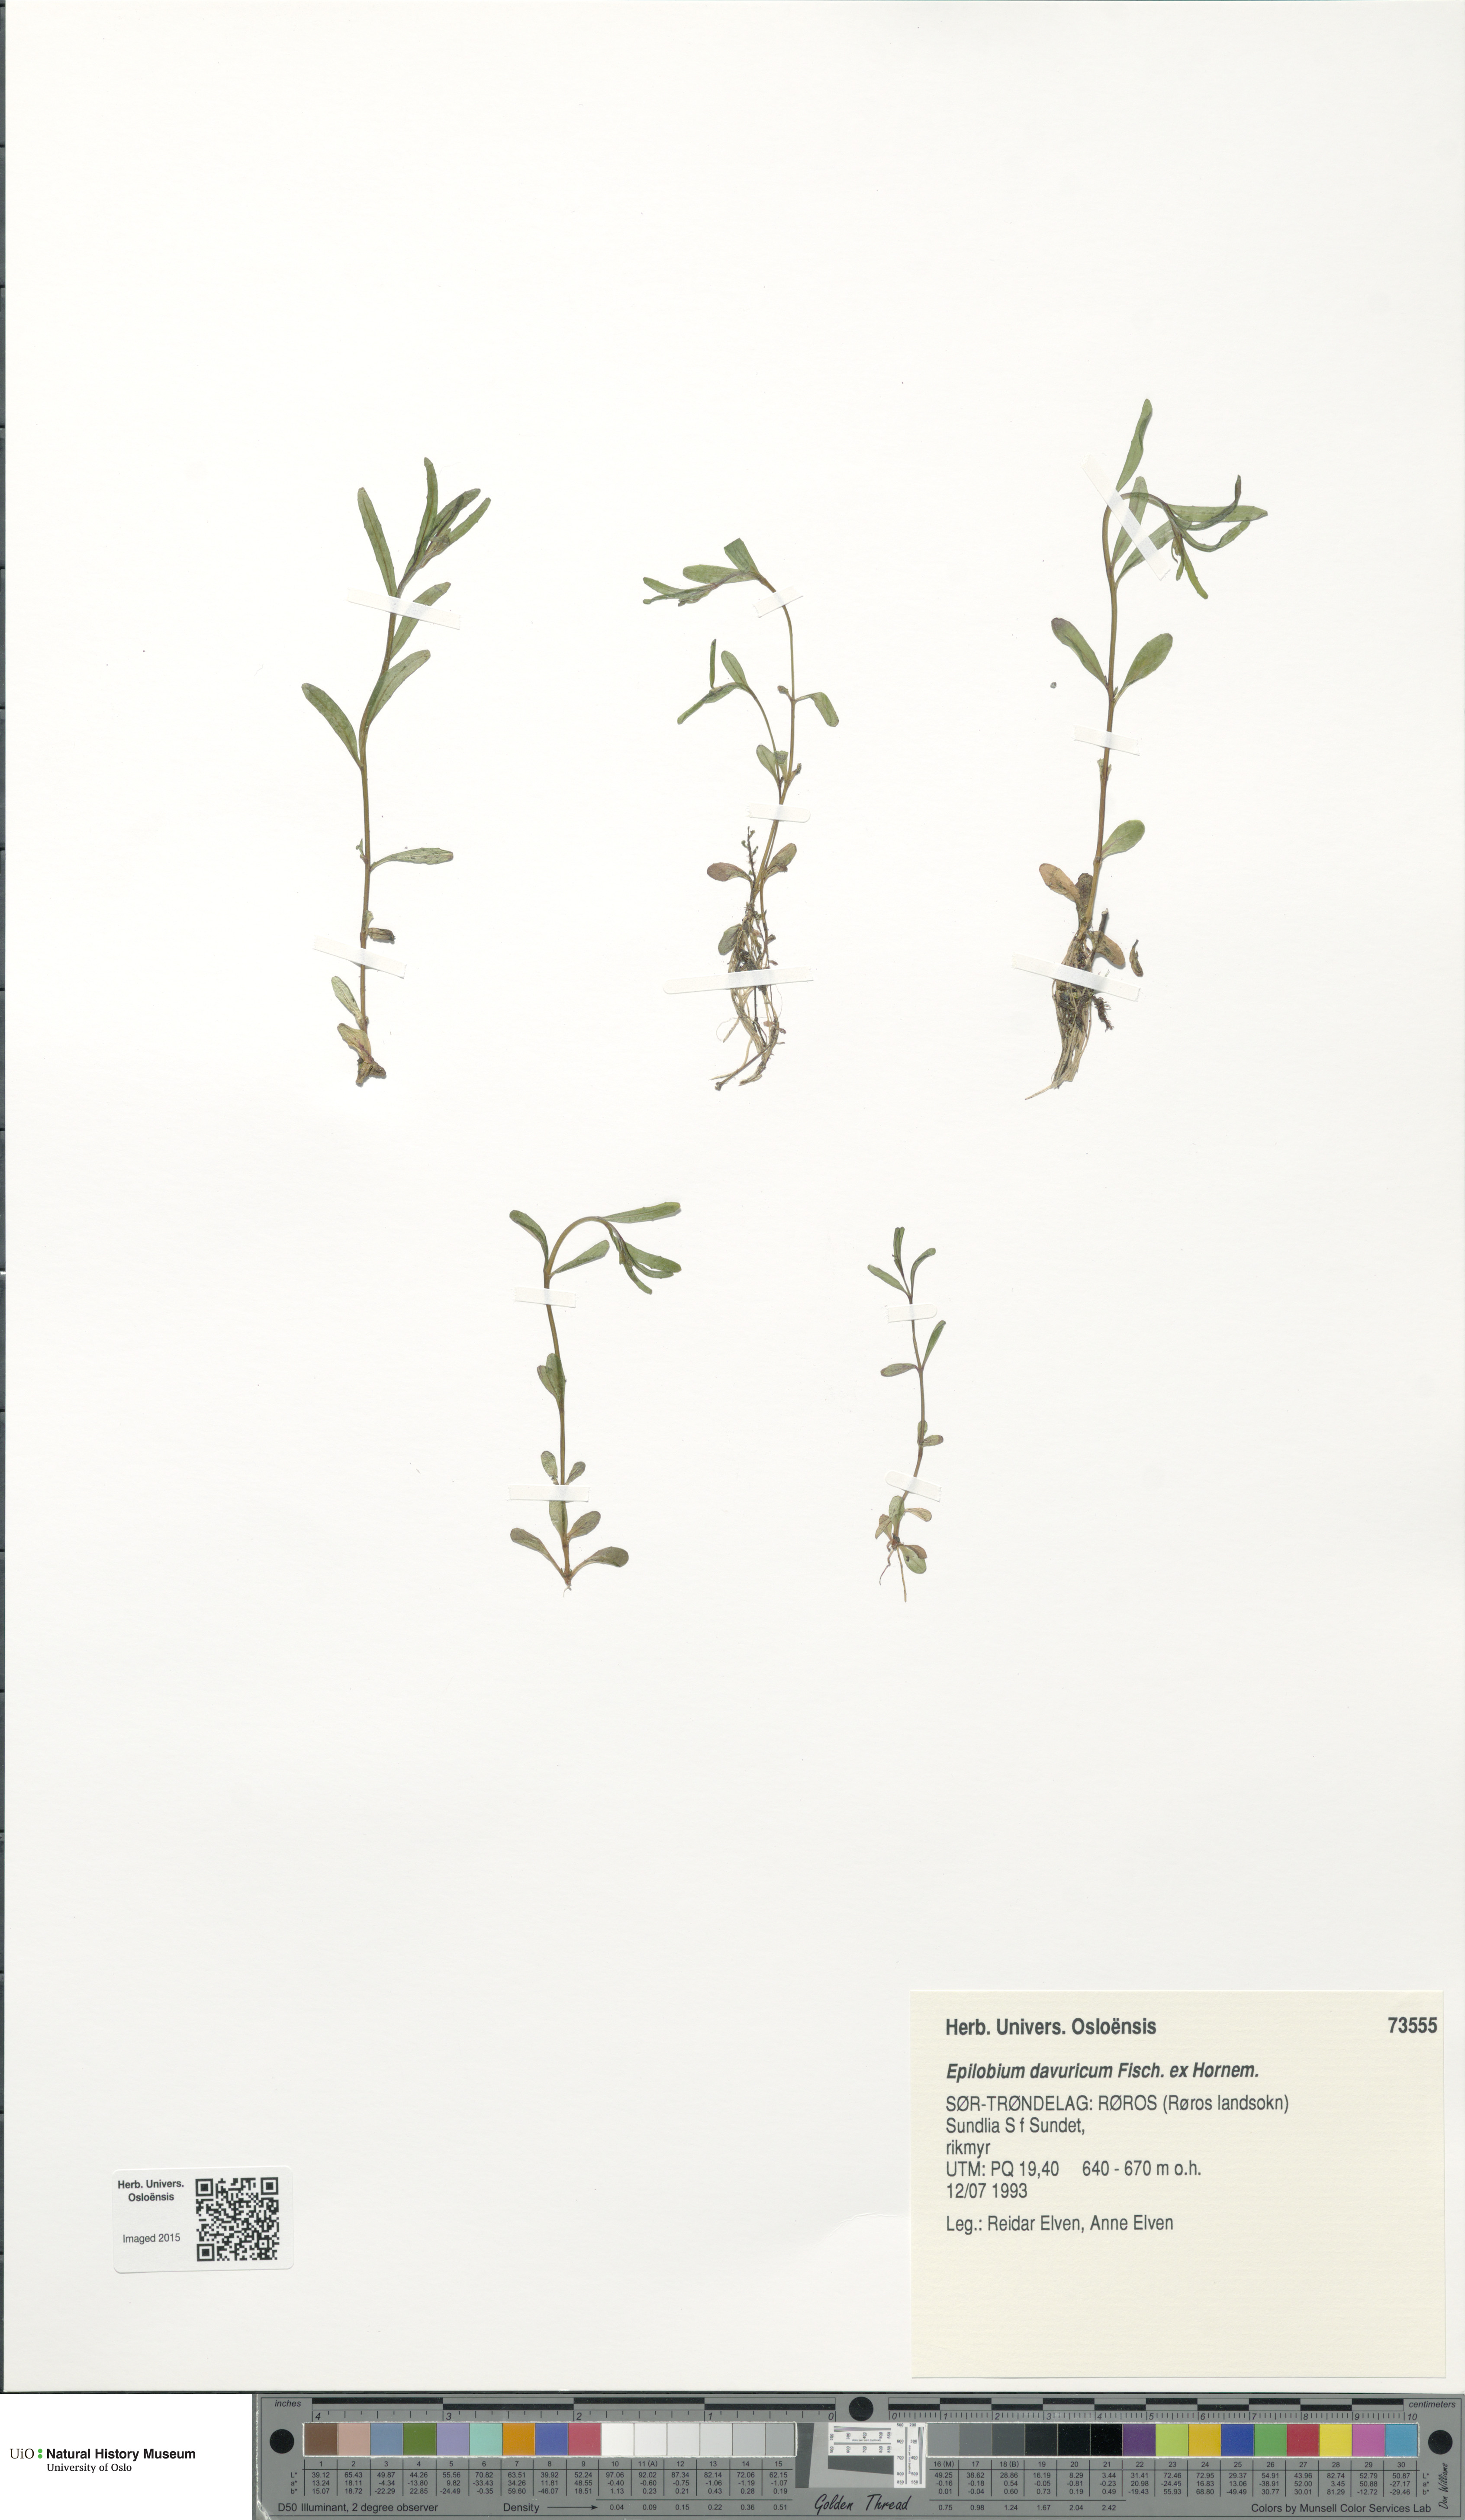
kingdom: Plantae
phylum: Tracheophyta
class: Magnoliopsida
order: Myrtales
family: Onagraceae
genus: Epilobium
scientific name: Epilobium davuricum
